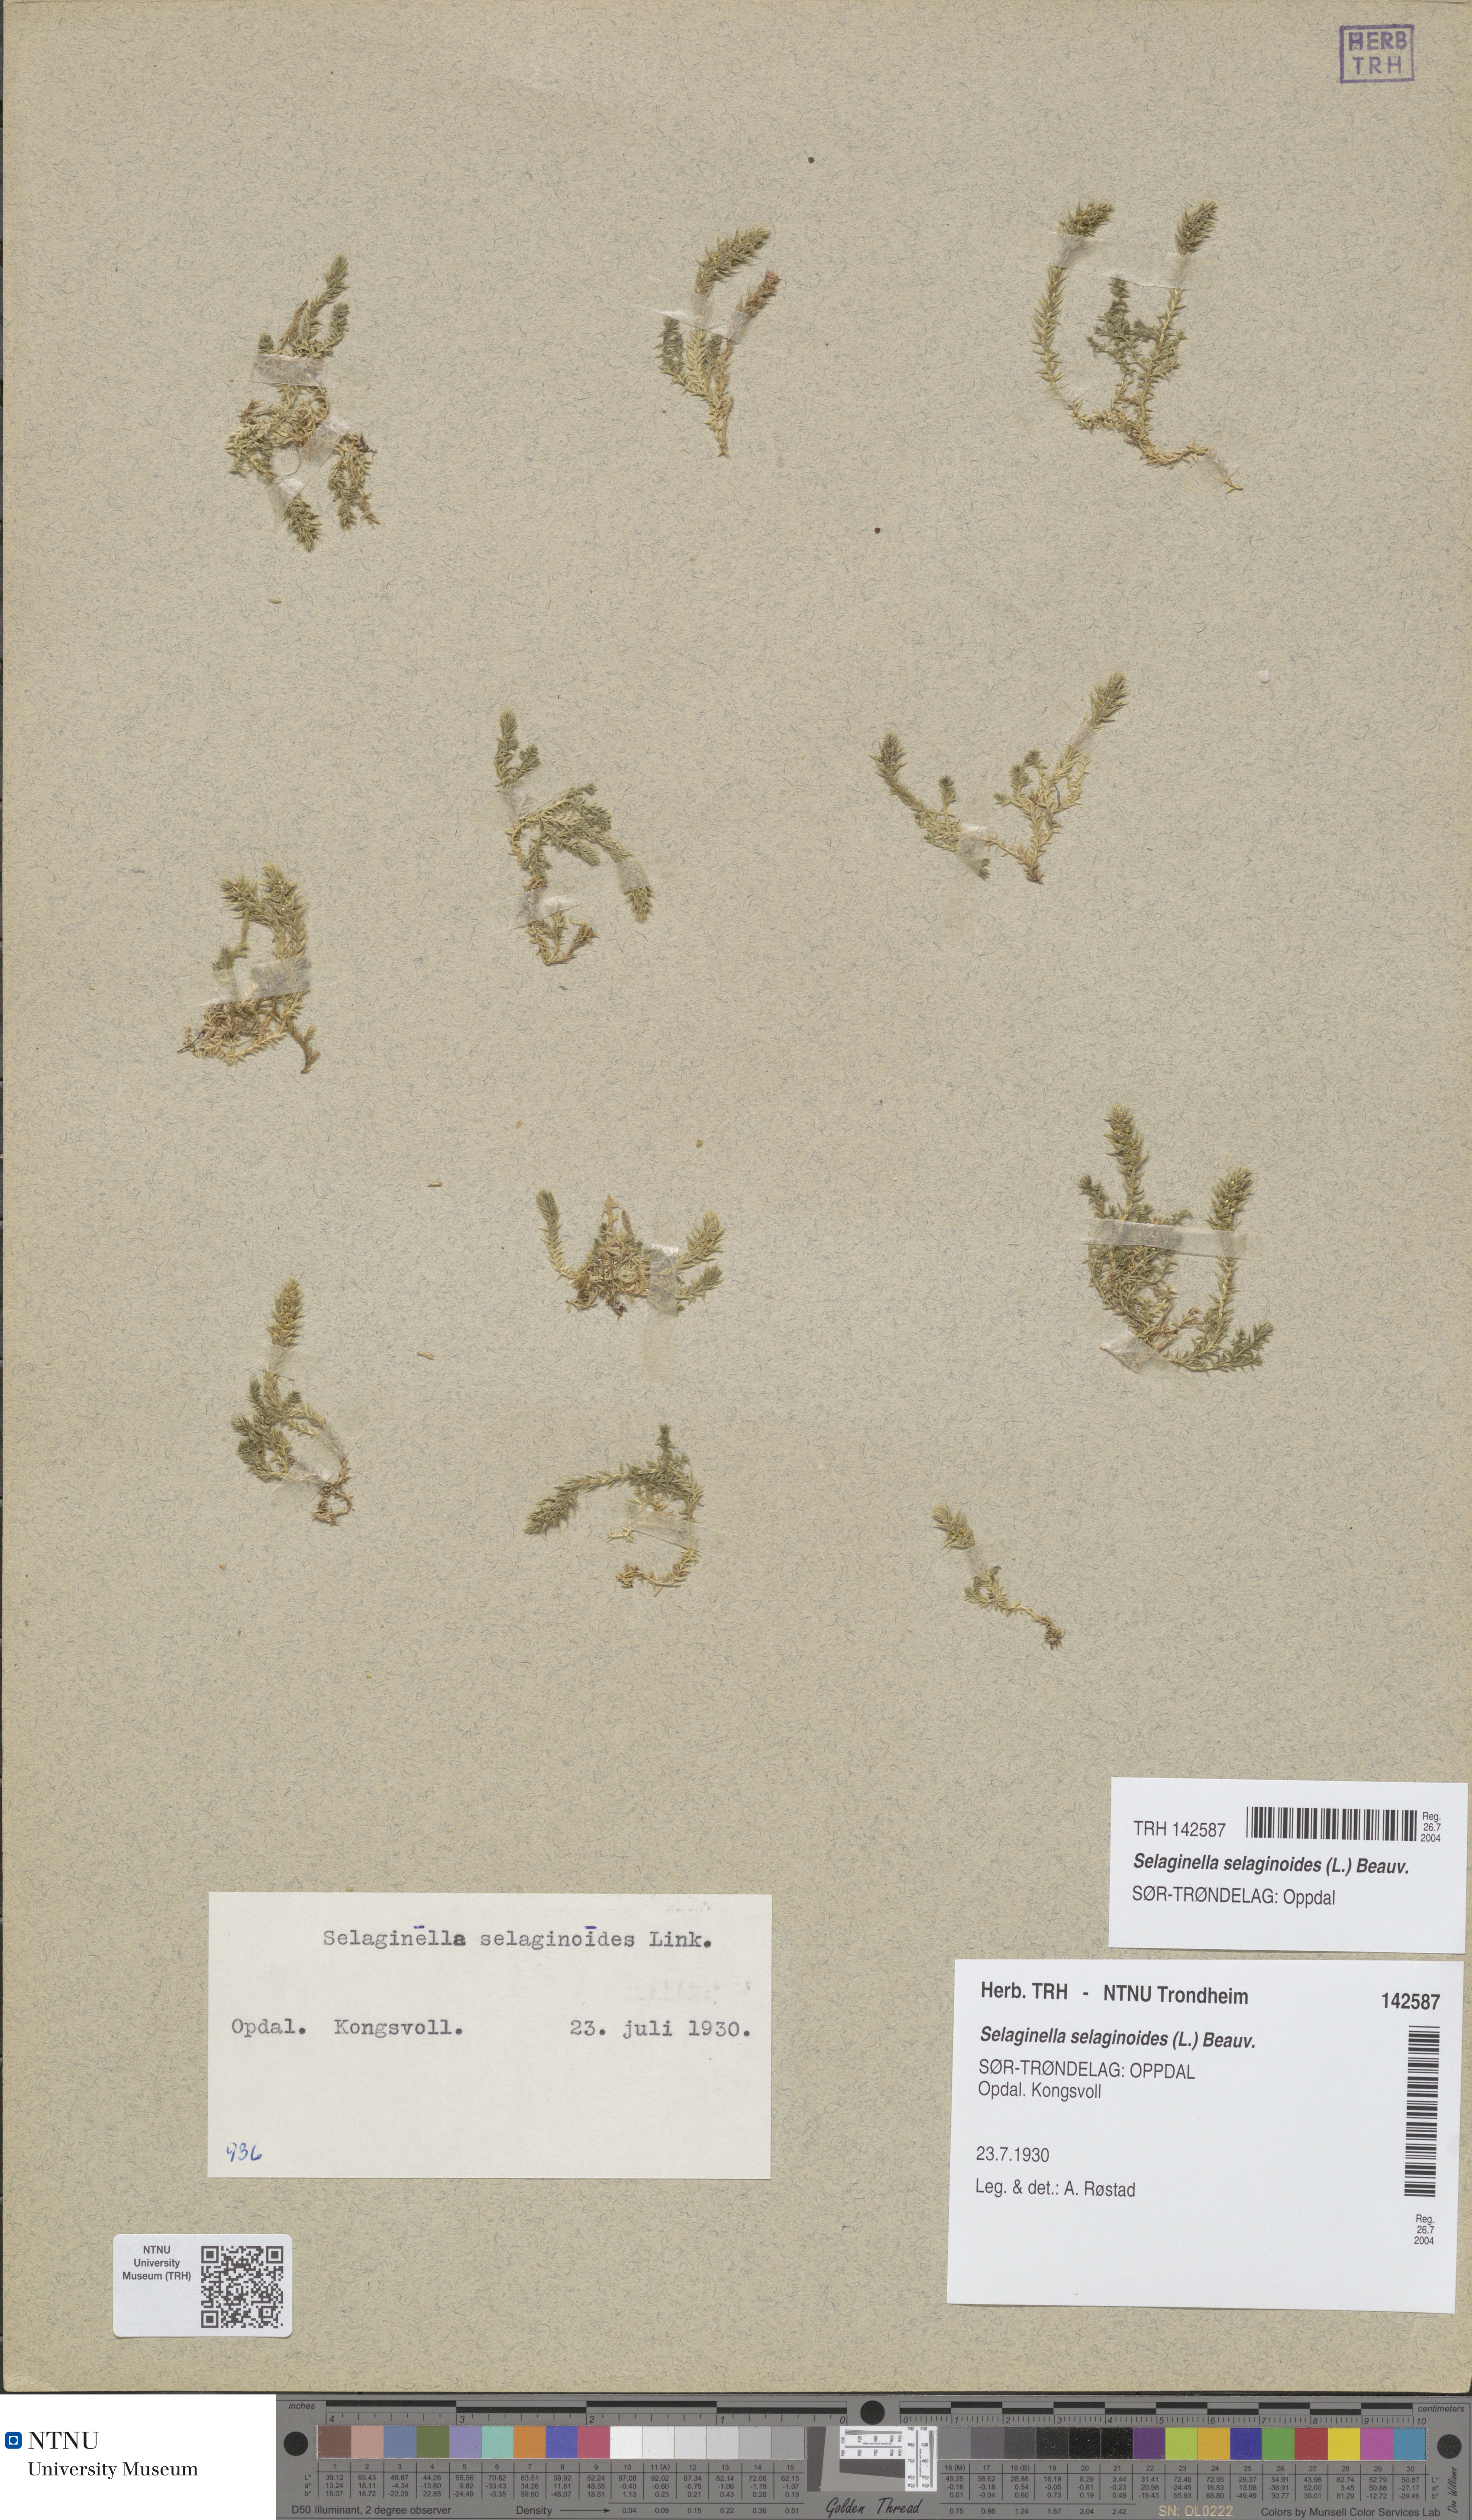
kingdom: Plantae
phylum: Tracheophyta
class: Lycopodiopsida
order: Selaginellales
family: Selaginellaceae
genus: Selaginella
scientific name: Selaginella selaginoides
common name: Prickly mountain-moss
